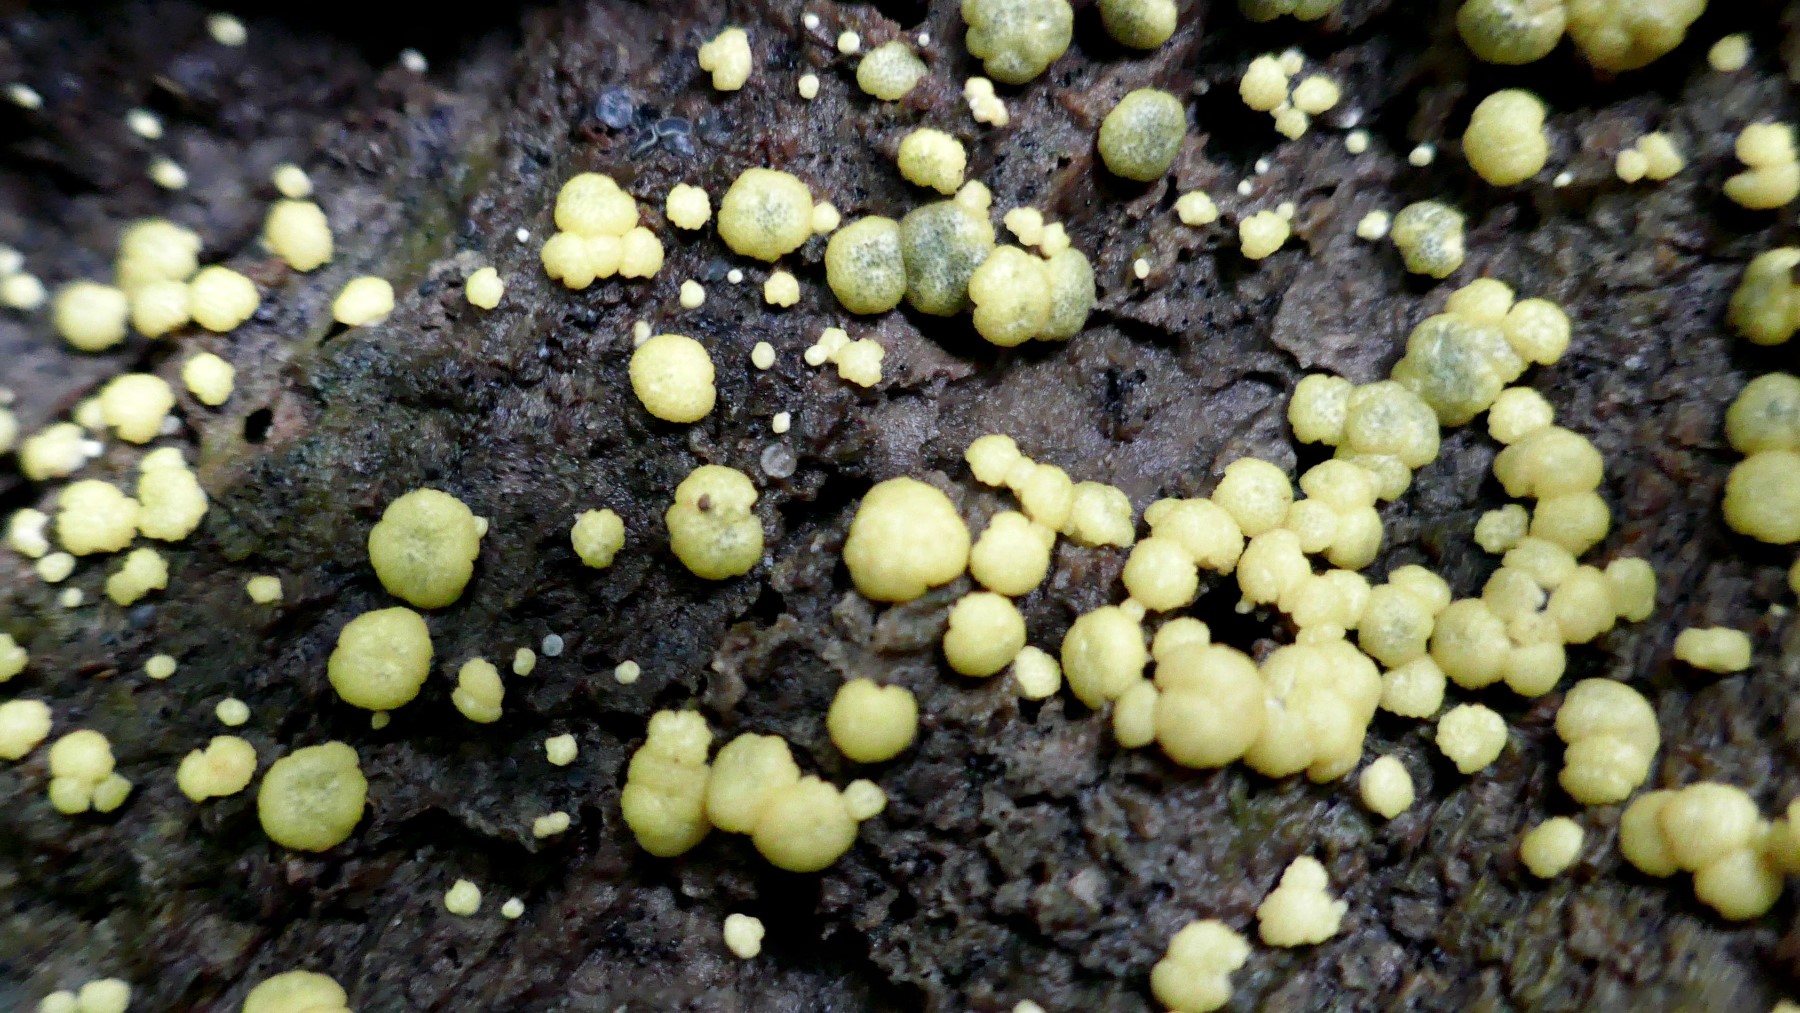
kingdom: Fungi
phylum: Ascomycota
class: Sordariomycetes
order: Hypocreales
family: Hypocreaceae
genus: Trichoderma
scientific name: Trichoderma strictipile
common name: grønprikket kødkerne
